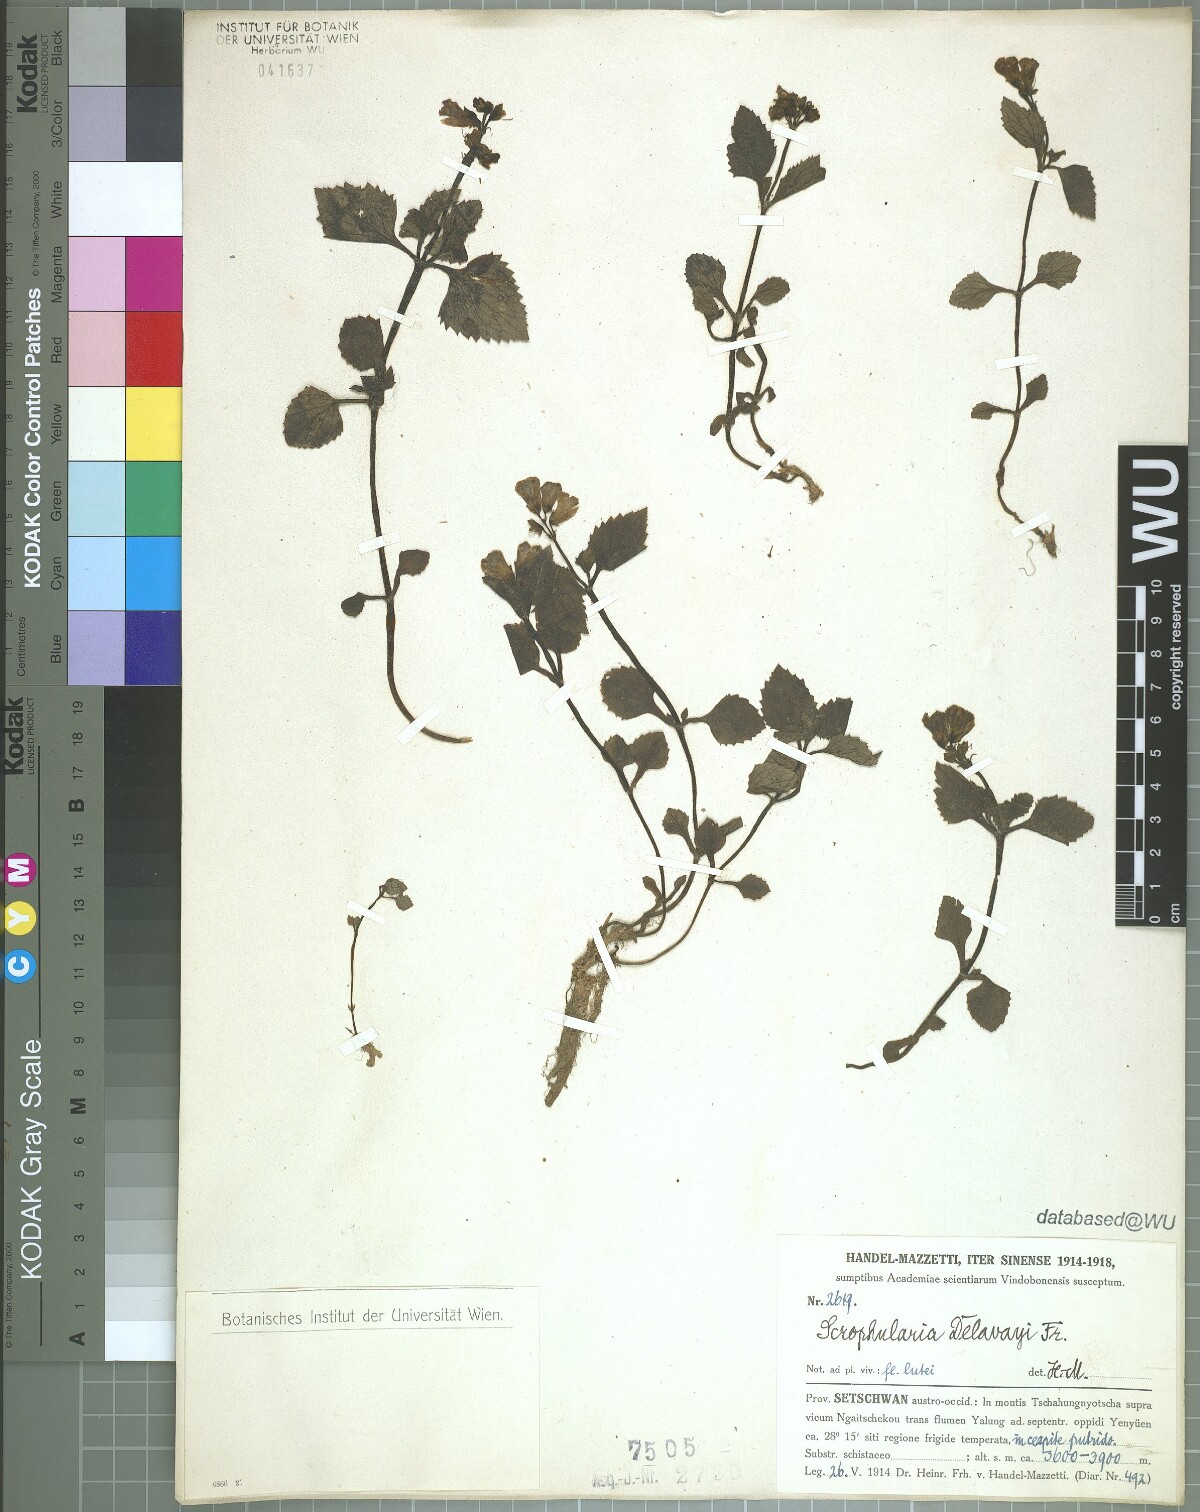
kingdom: Plantae
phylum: Tracheophyta
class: Magnoliopsida
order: Lamiales
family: Scrophulariaceae
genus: Scrophularia
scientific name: Scrophularia delavayi
